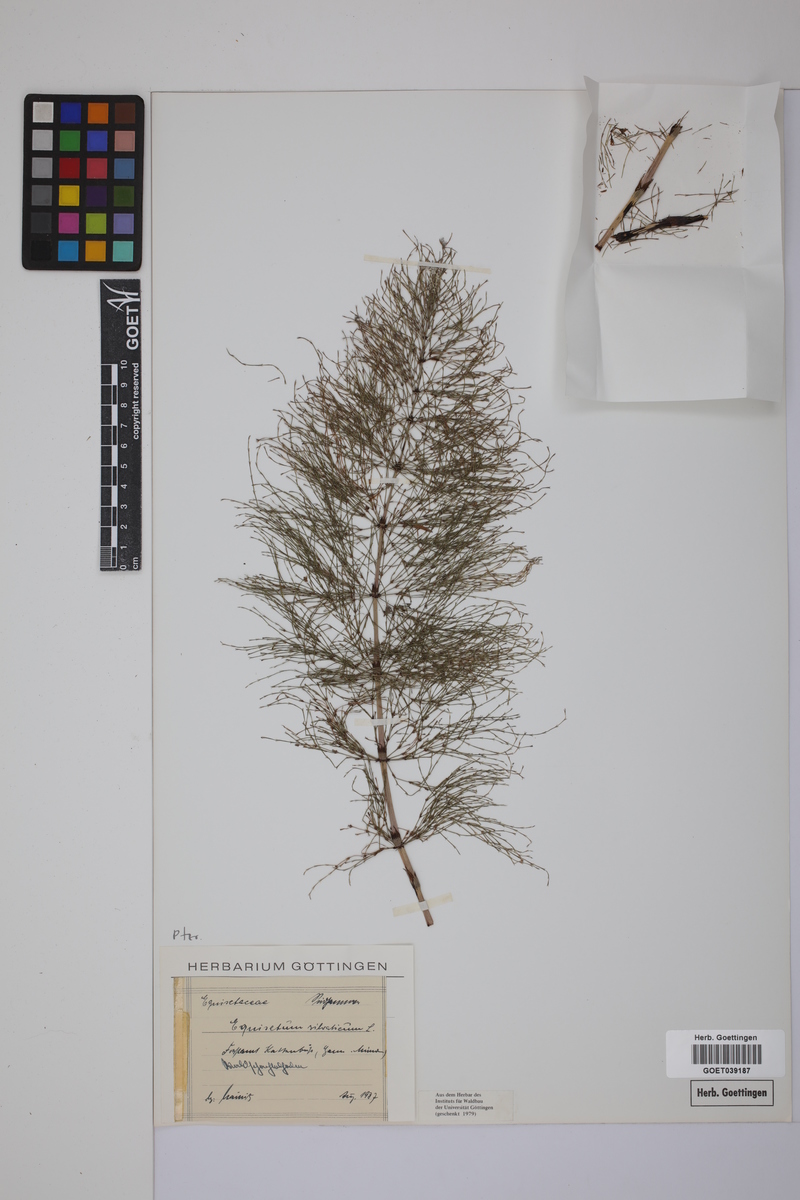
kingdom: Plantae
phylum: Tracheophyta
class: Polypodiopsida
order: Equisetales
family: Equisetaceae
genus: Equisetum
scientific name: Equisetum sylvaticum
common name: Wood horsetail
